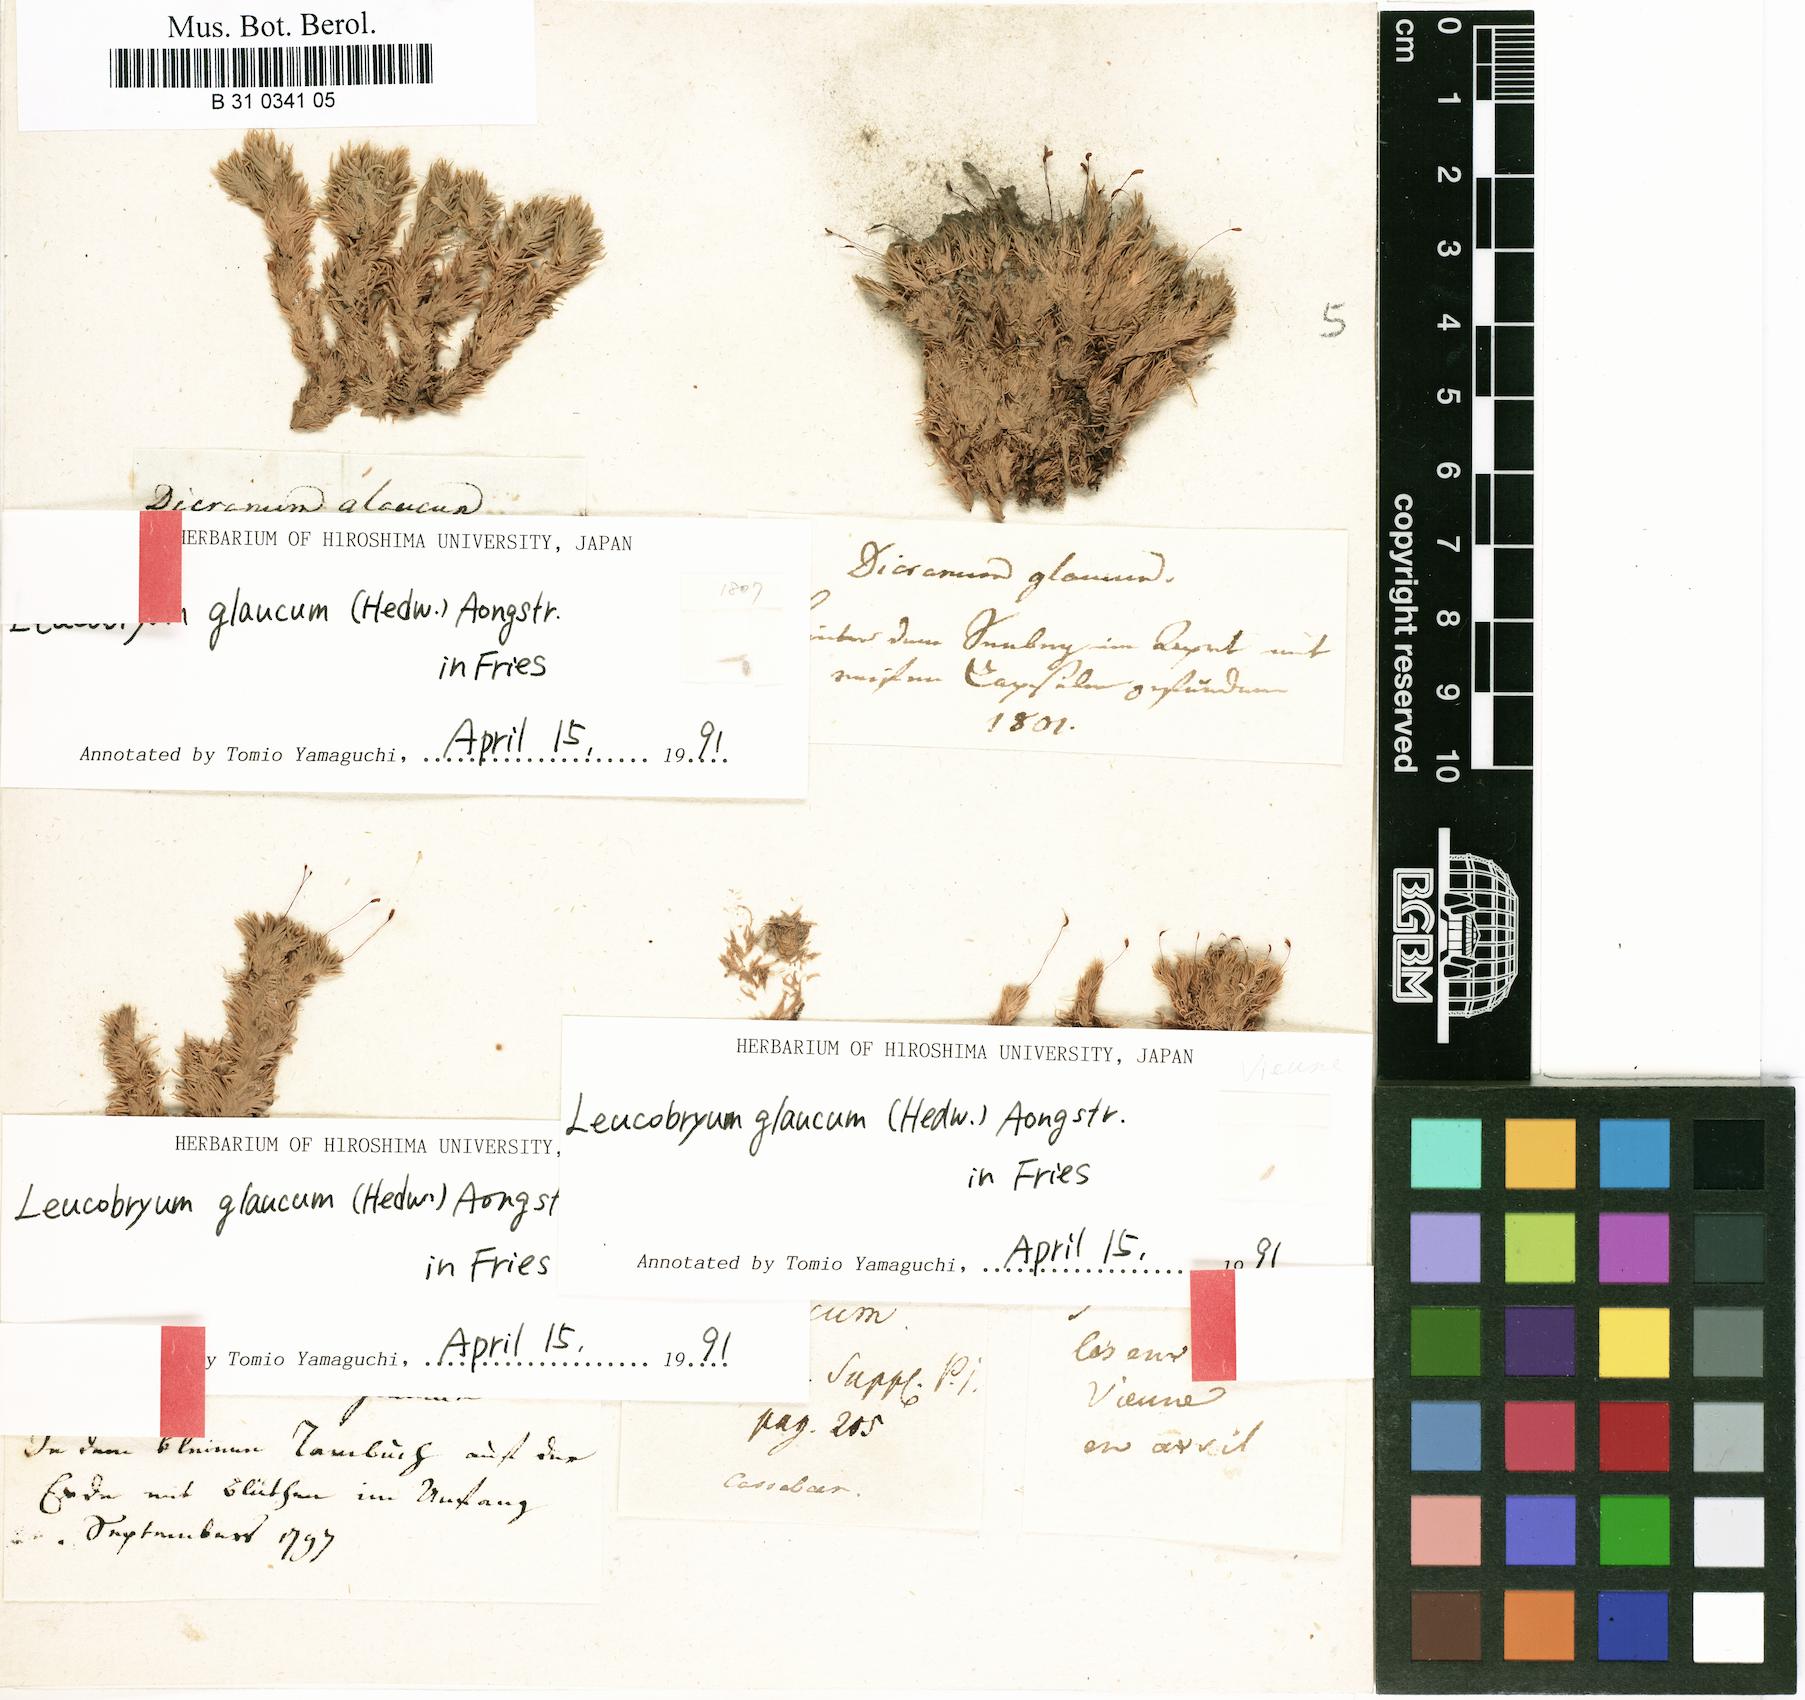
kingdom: Plantae
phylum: Bryophyta
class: Bryopsida
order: Dicranales
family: Leucobryaceae
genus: Leucobryum
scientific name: Leucobryum glaucum
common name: Large white-moss
